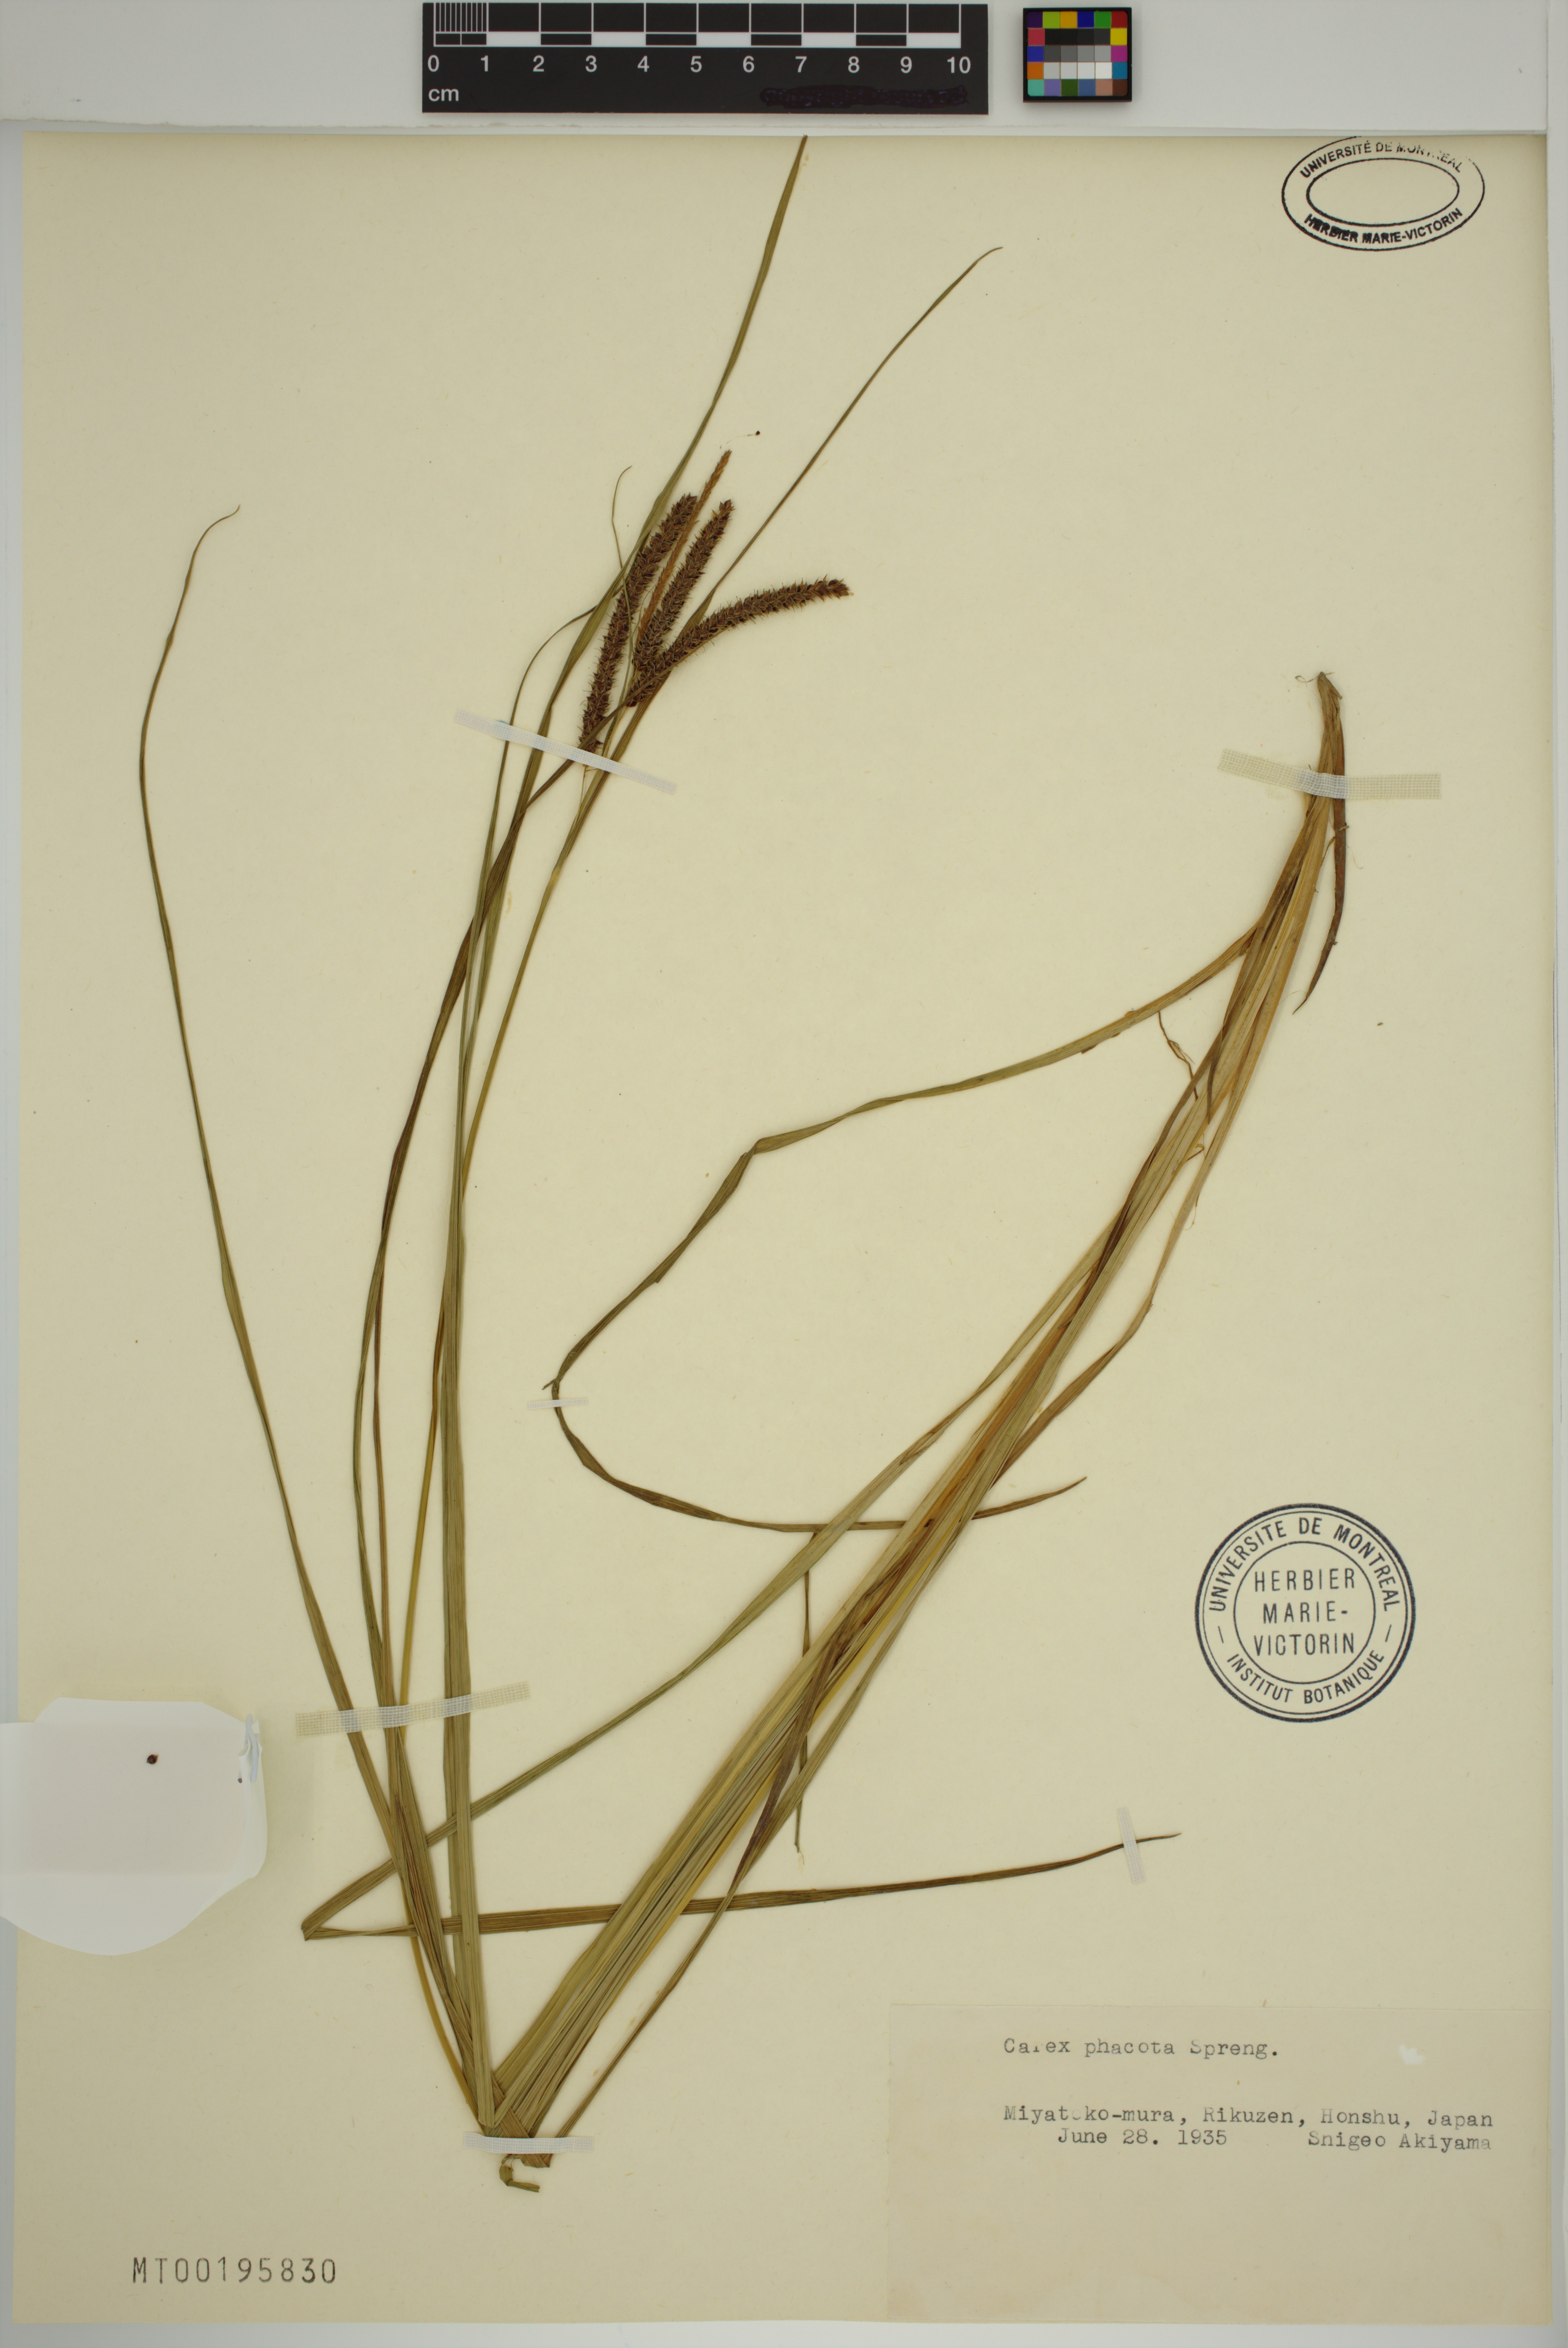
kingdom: Plantae
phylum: Tracheophyta
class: Liliopsida
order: Poales
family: Cyperaceae
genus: Carex
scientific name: Carex phacota
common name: Lakeshore sedge
